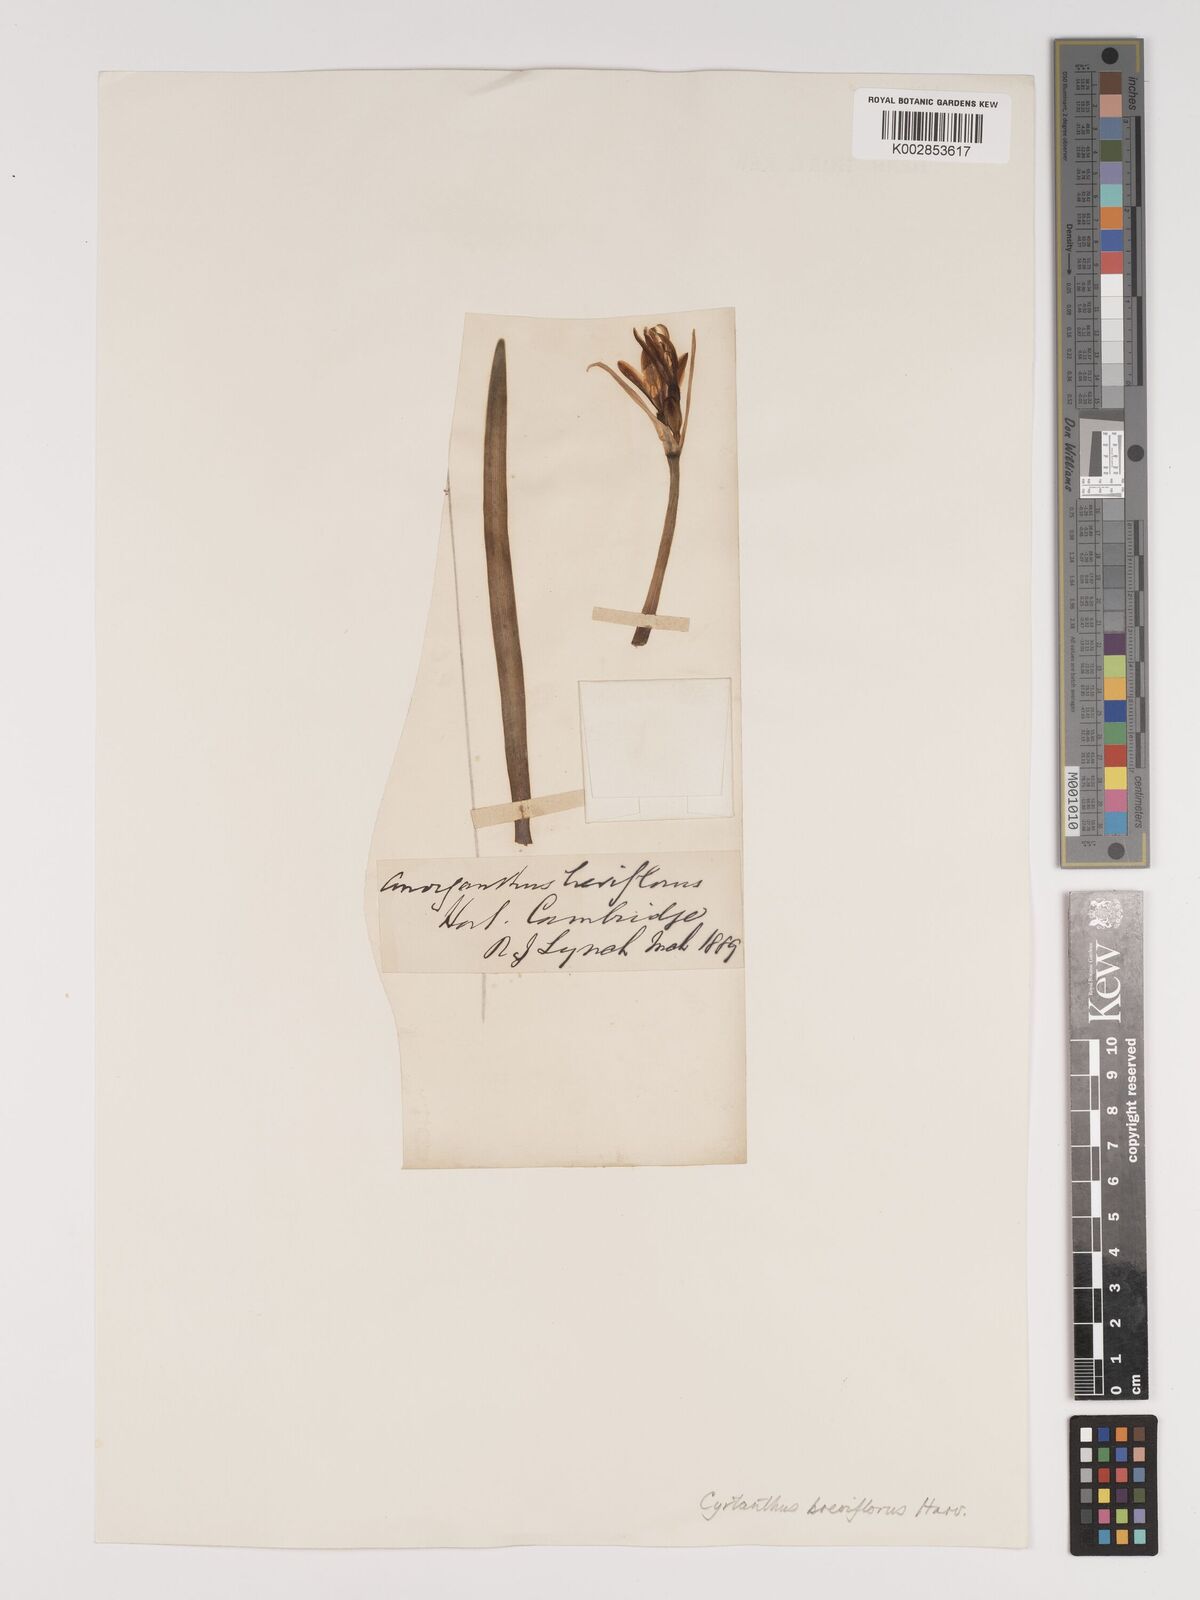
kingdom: Plantae
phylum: Tracheophyta
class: Liliopsida
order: Asparagales
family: Amaryllidaceae
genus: Cyrtanthus
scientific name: Cyrtanthus breviflorus
